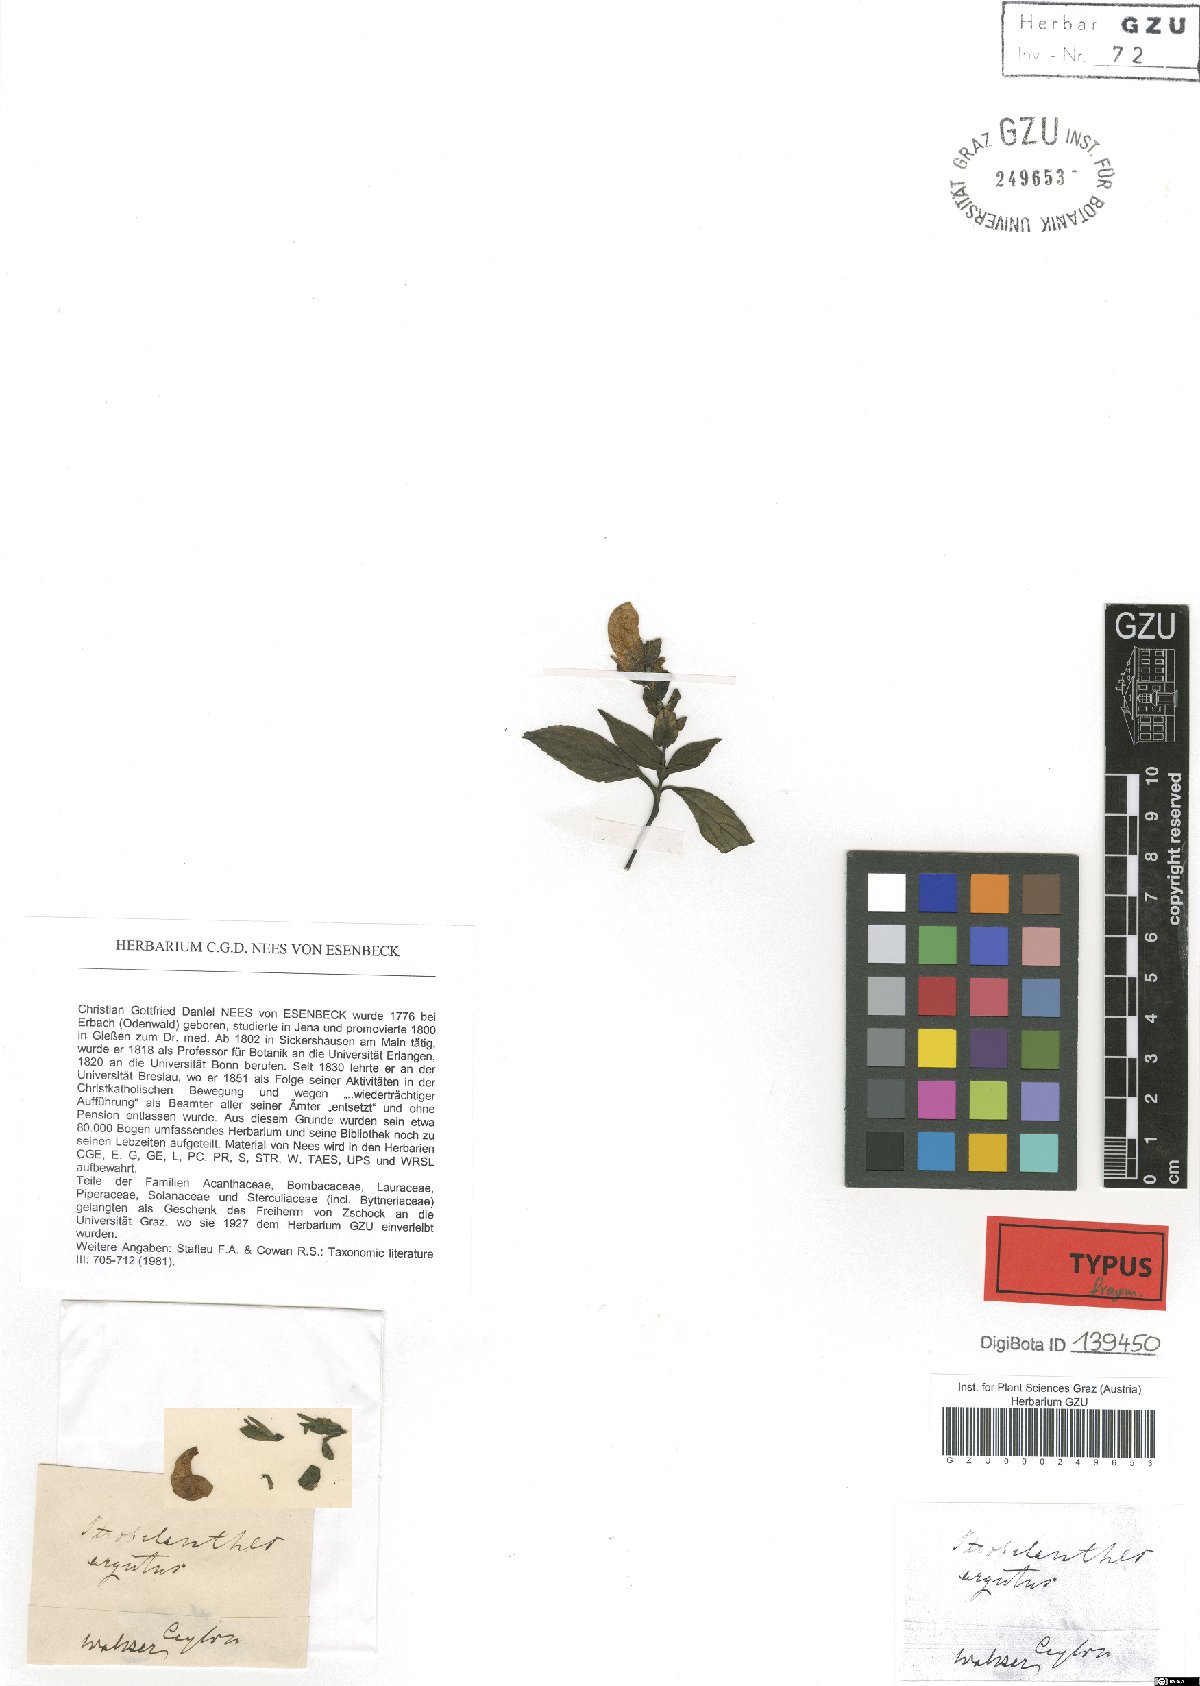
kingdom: Plantae
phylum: Tracheophyta
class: Magnoliopsida
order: Lamiales
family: Acanthaceae
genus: Strobilanthes
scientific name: Strobilanthes sexennis
